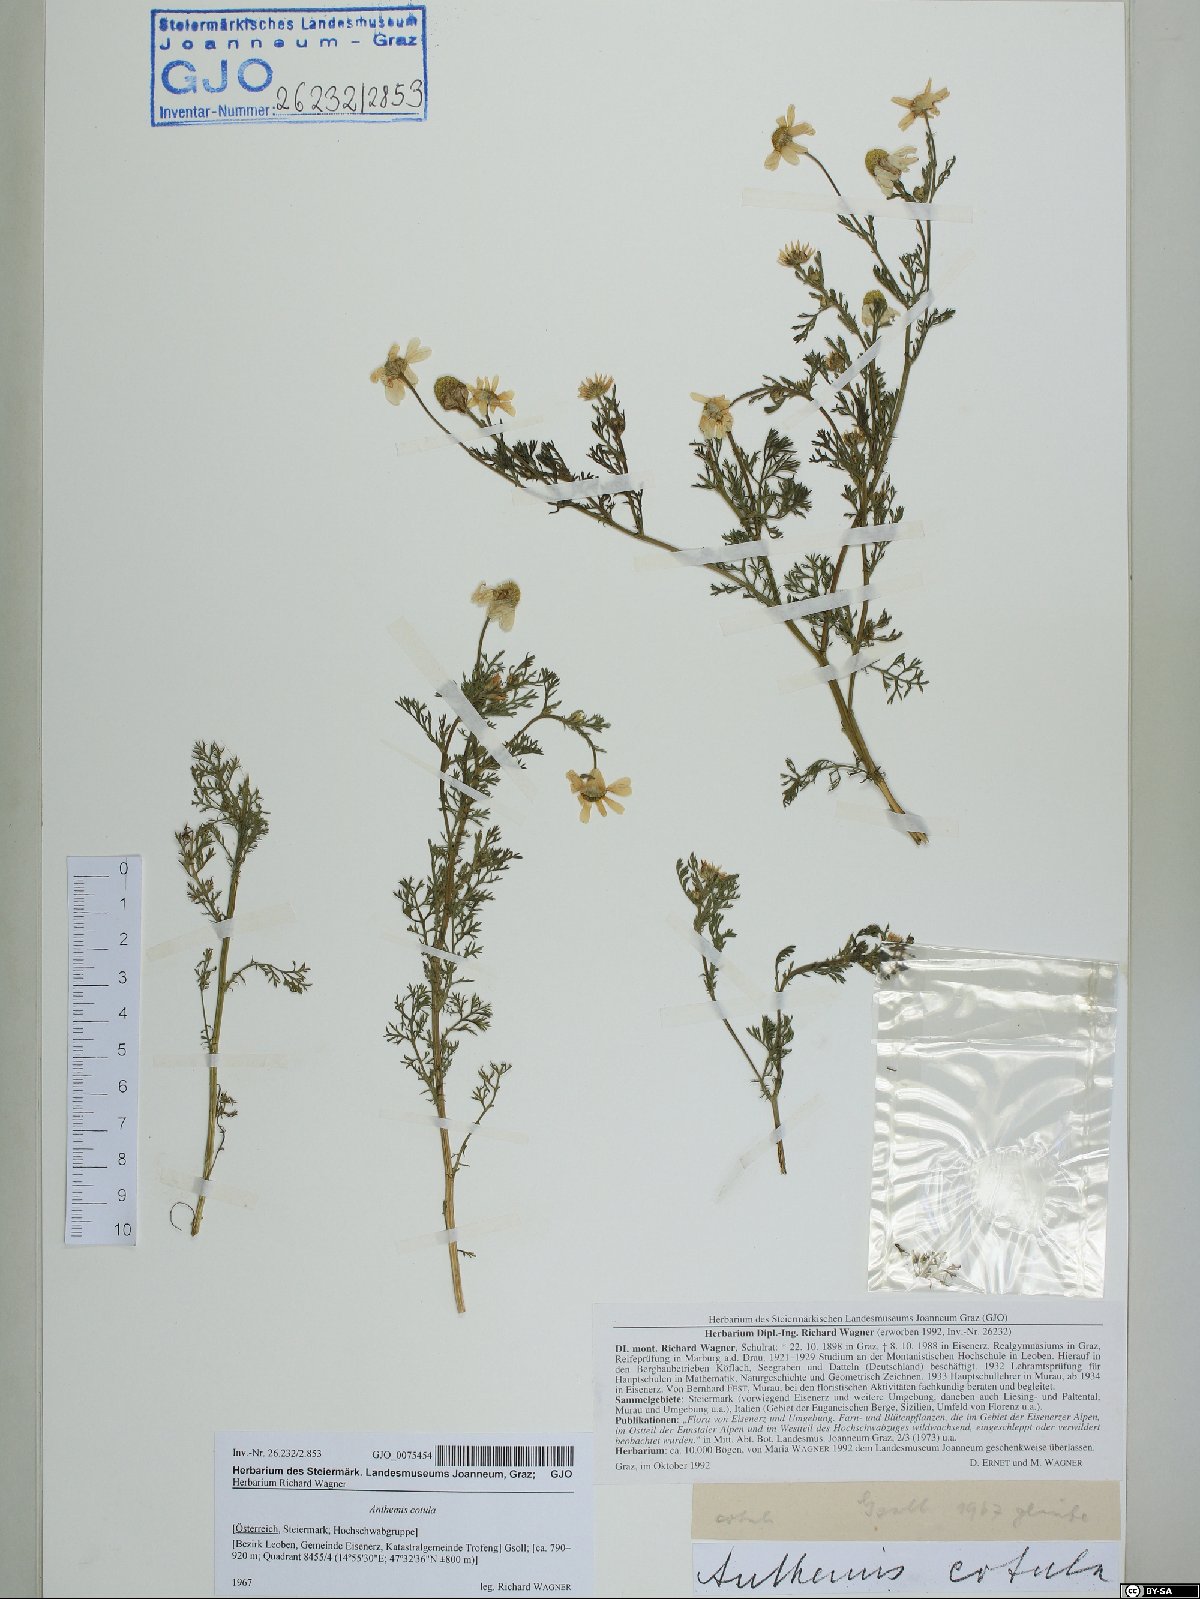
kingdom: Plantae
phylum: Tracheophyta
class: Magnoliopsida
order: Asterales
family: Asteraceae
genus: Anthemis
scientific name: Anthemis cotula
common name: Stinking chamomile
